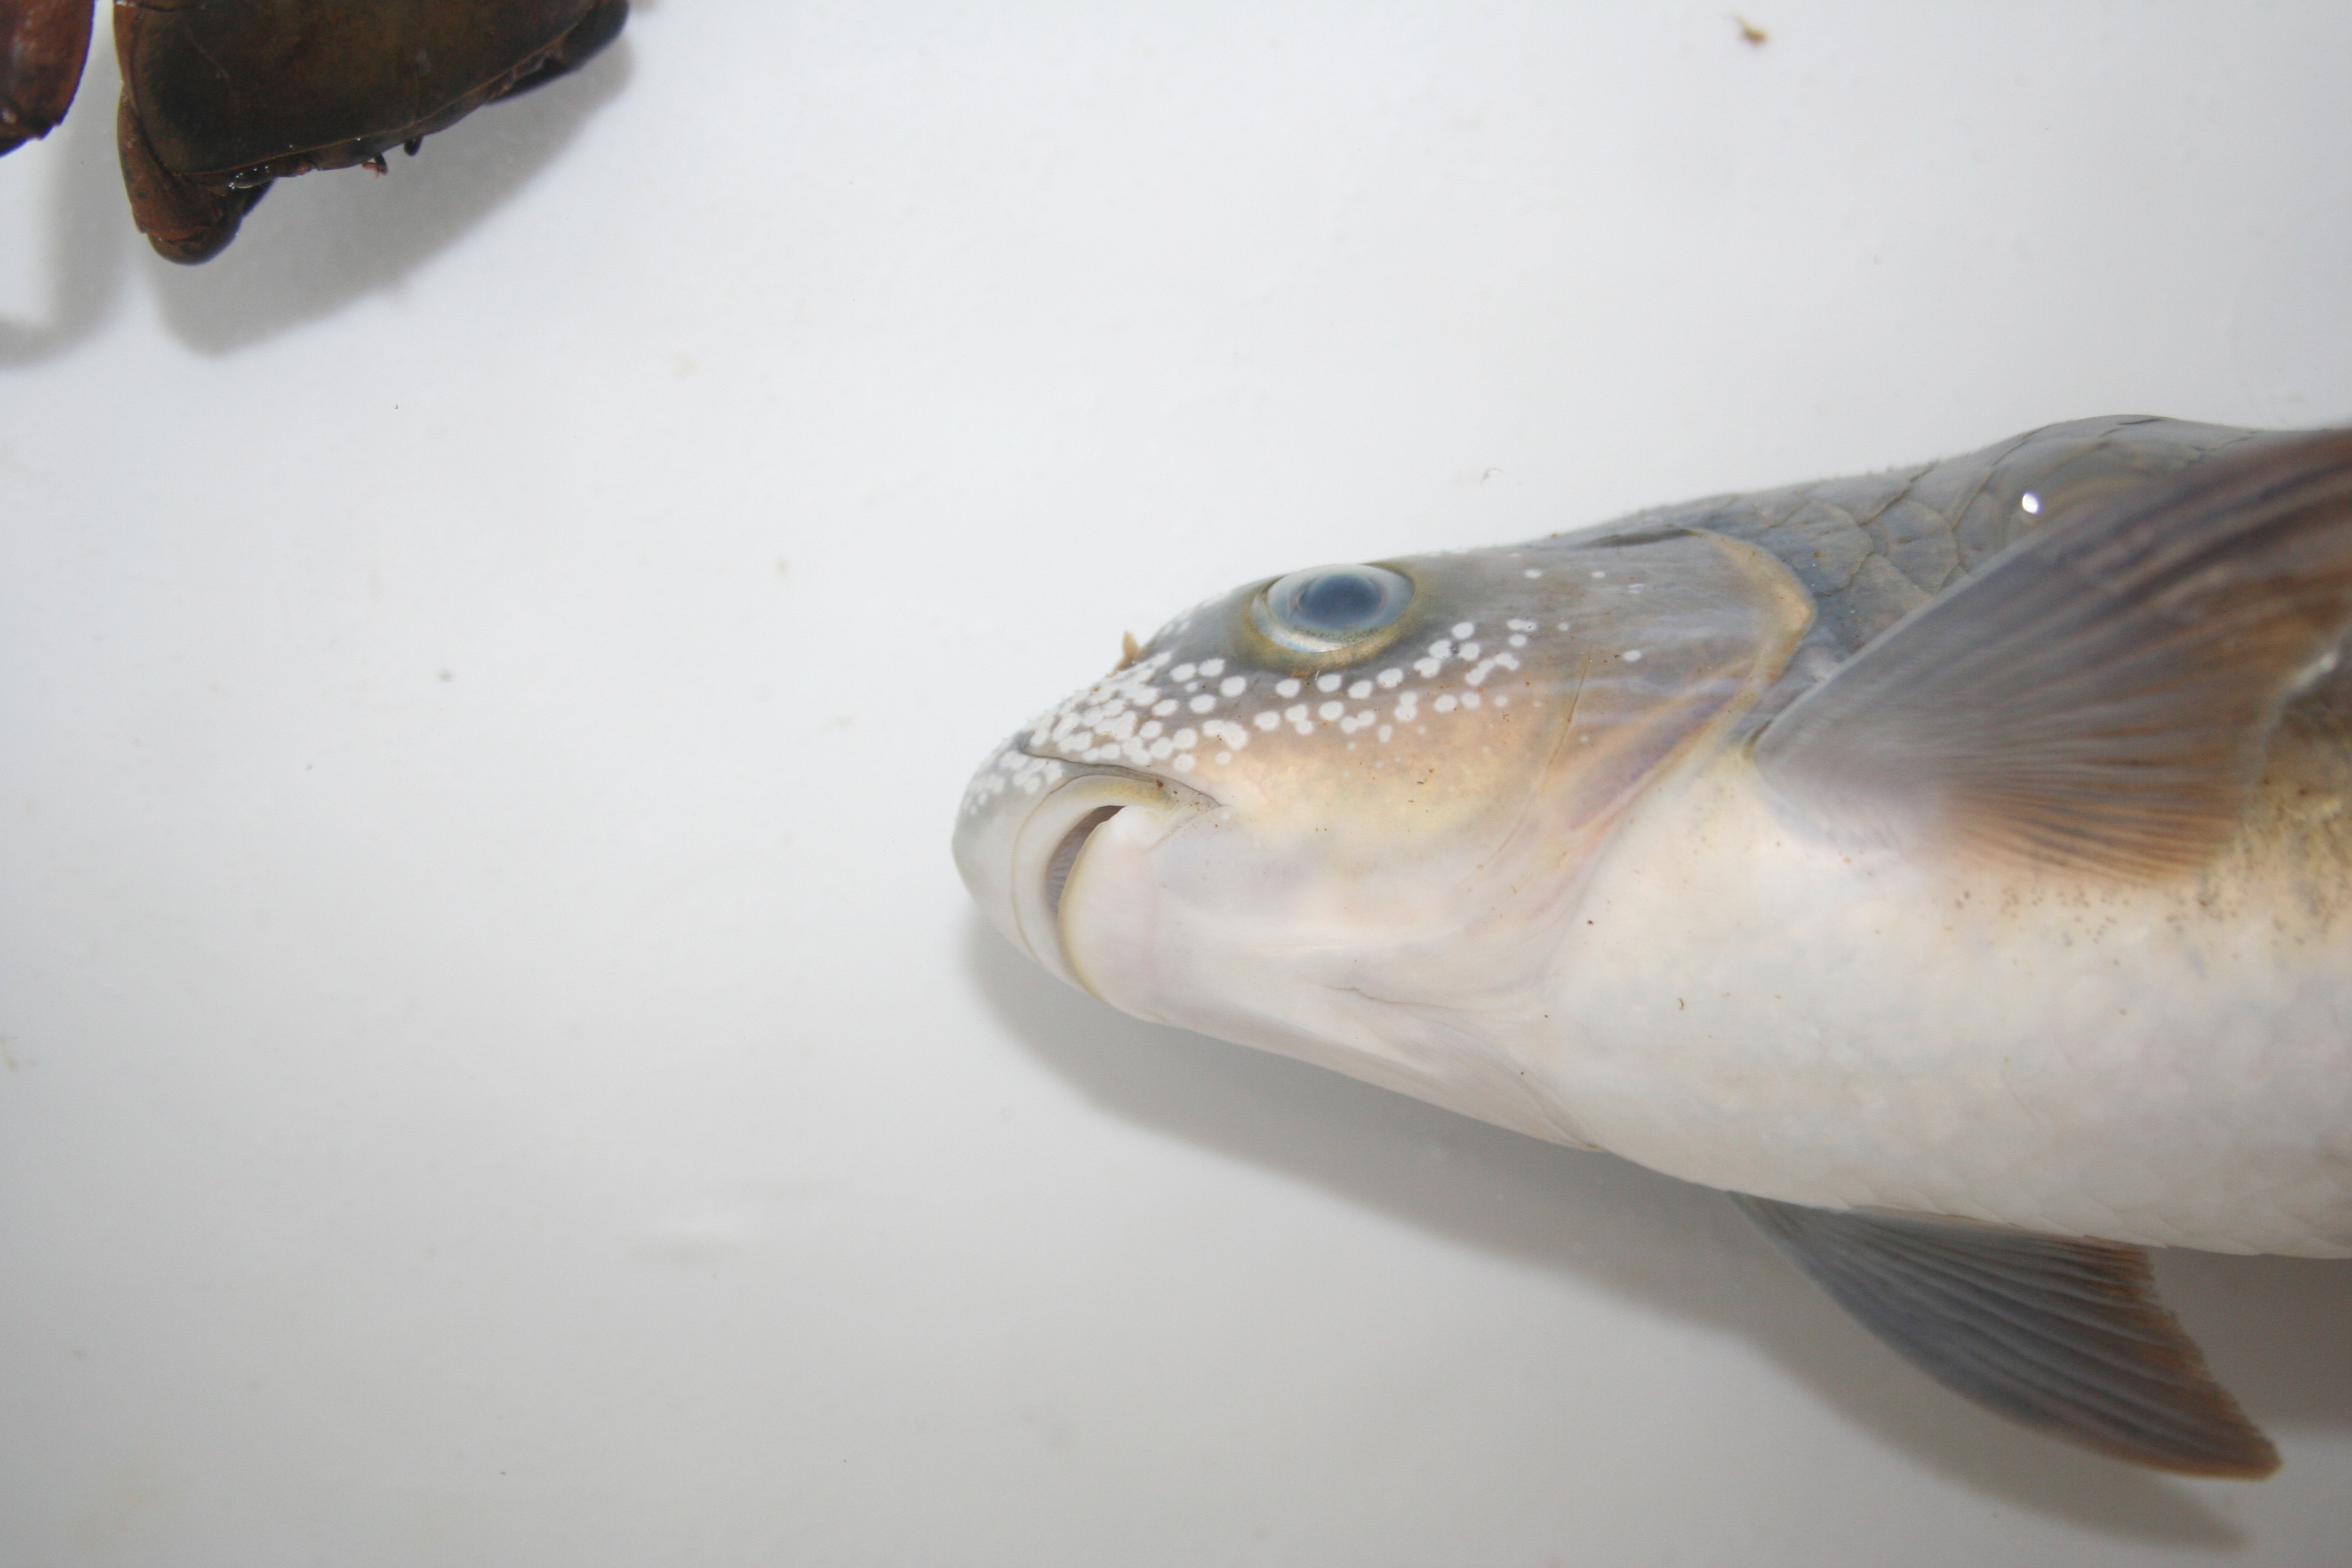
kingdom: Animalia
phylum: Chordata
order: Cypriniformes
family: Cyprinidae
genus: Labeobarbus
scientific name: Labeobarbus steindachneri
